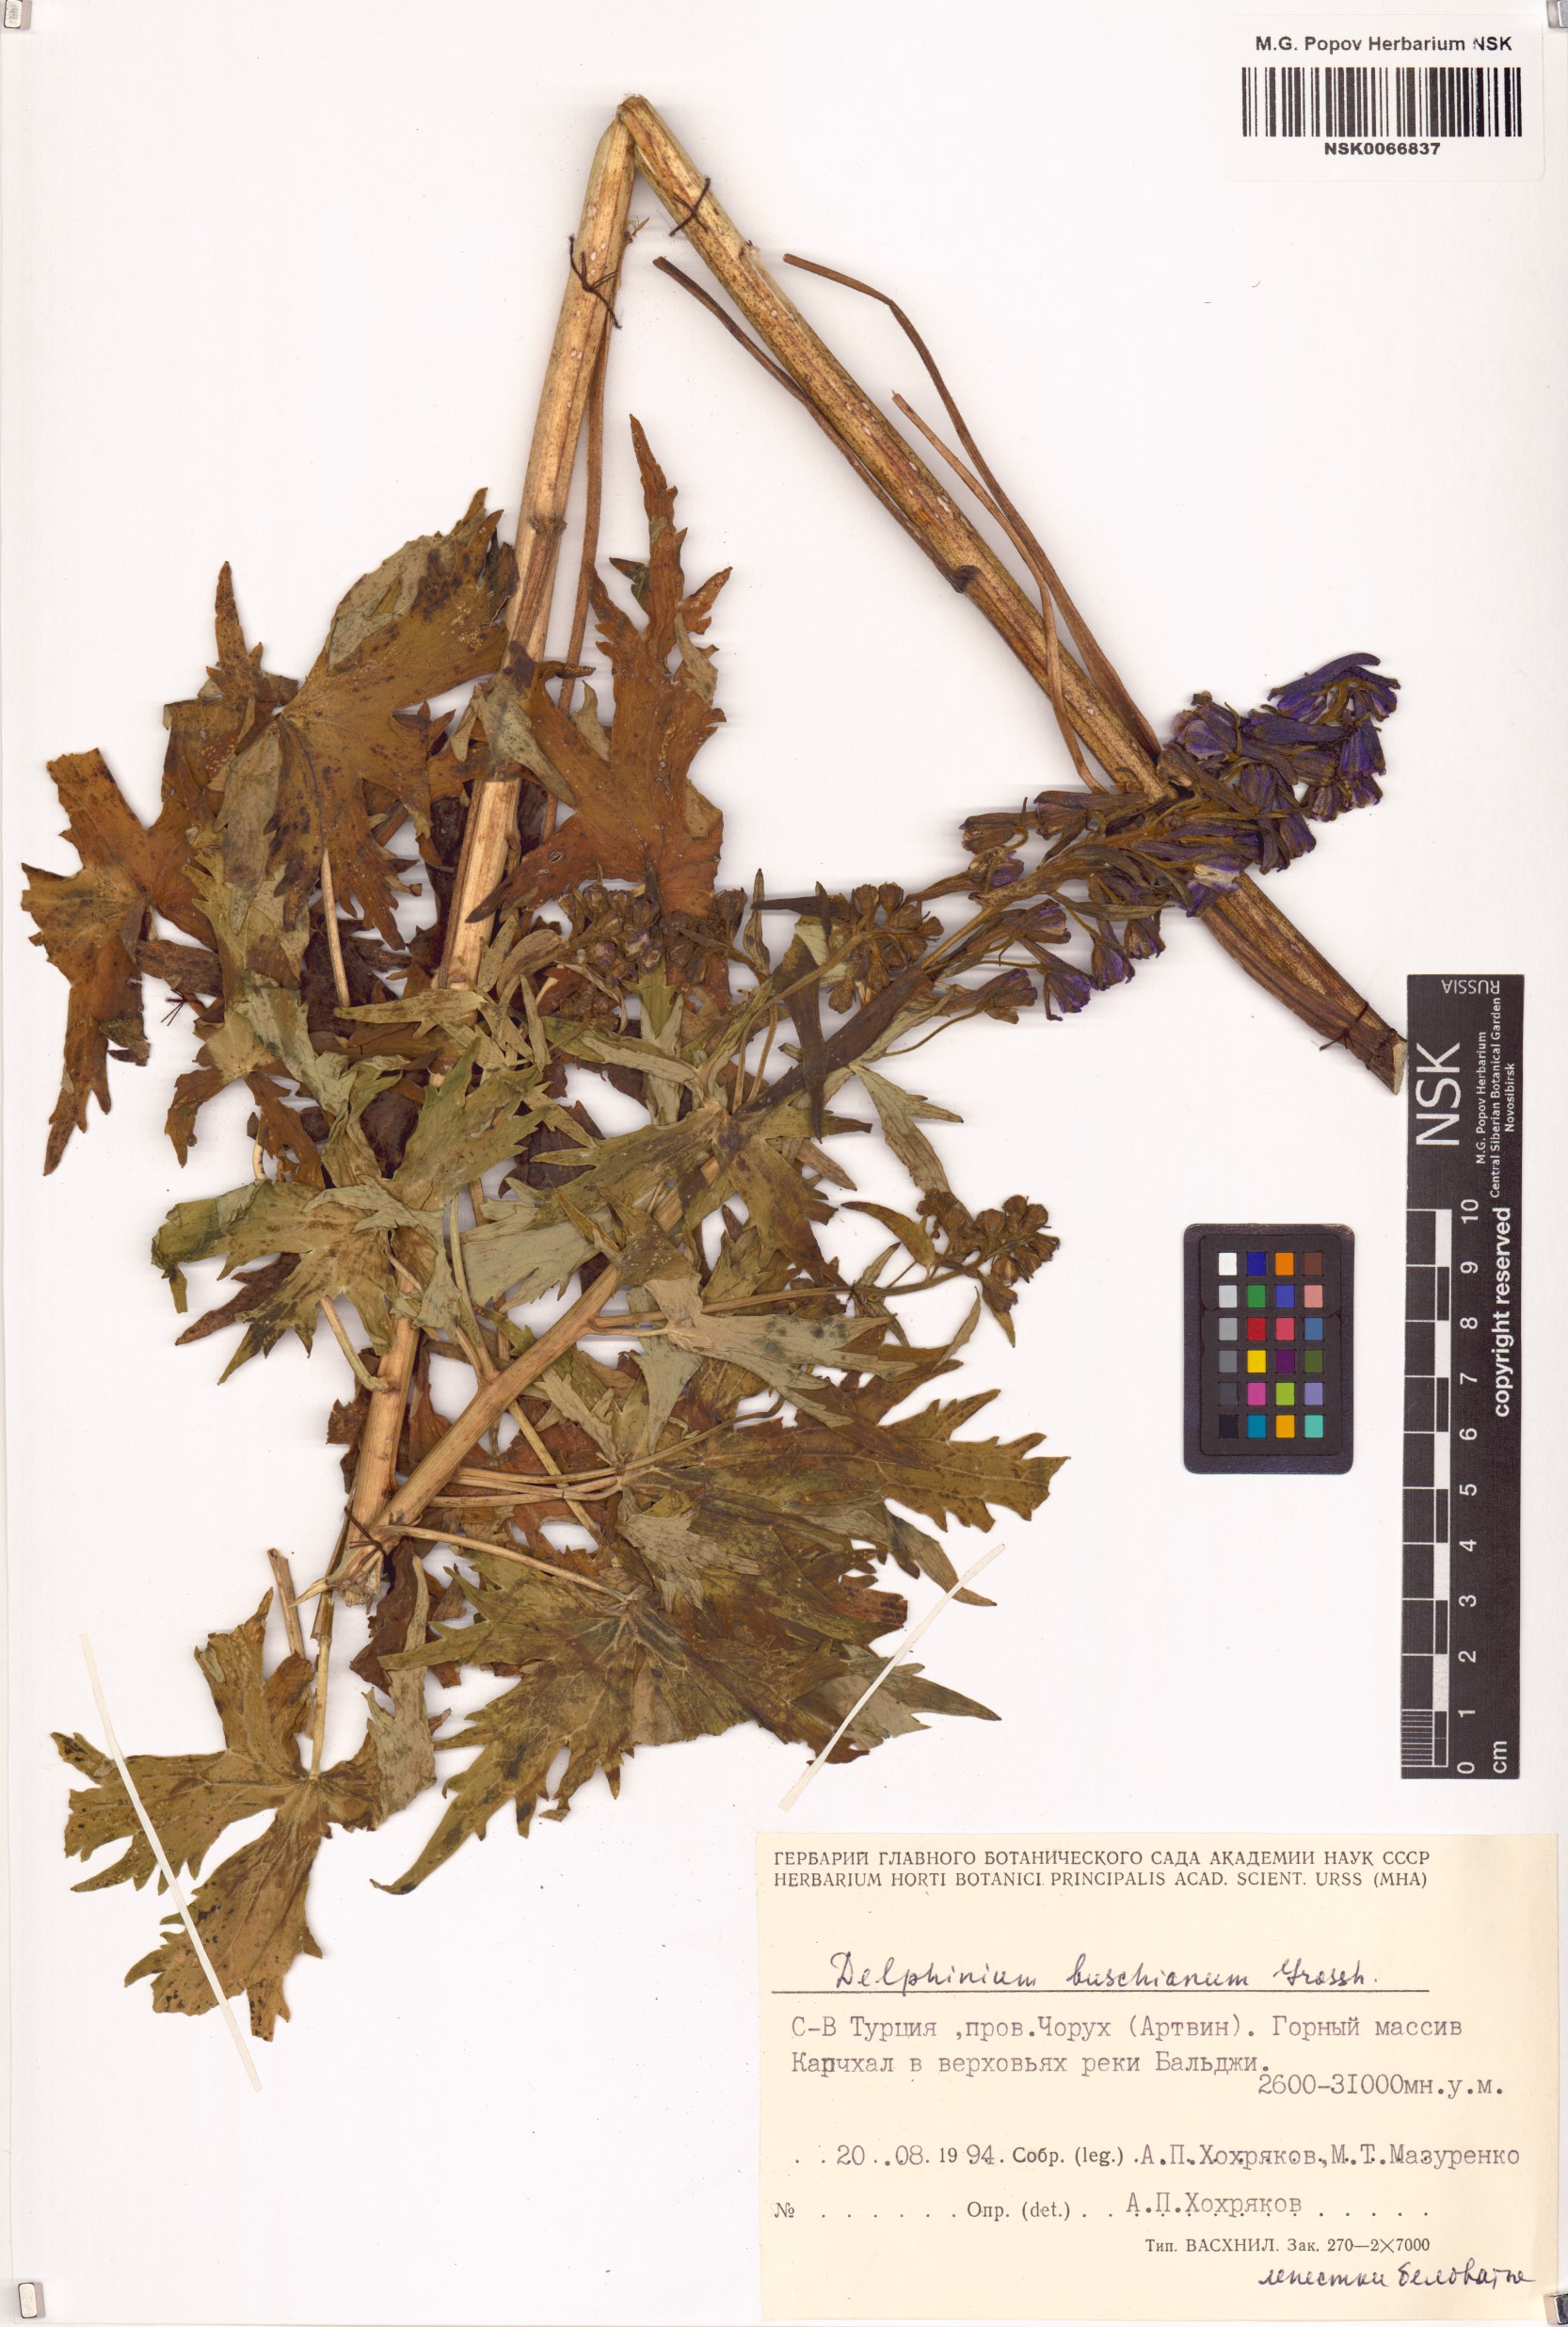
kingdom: Plantae
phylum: Tracheophyta
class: Magnoliopsida
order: Ranunculales
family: Ranunculaceae
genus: Delphinium
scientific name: Delphinium buschianum
